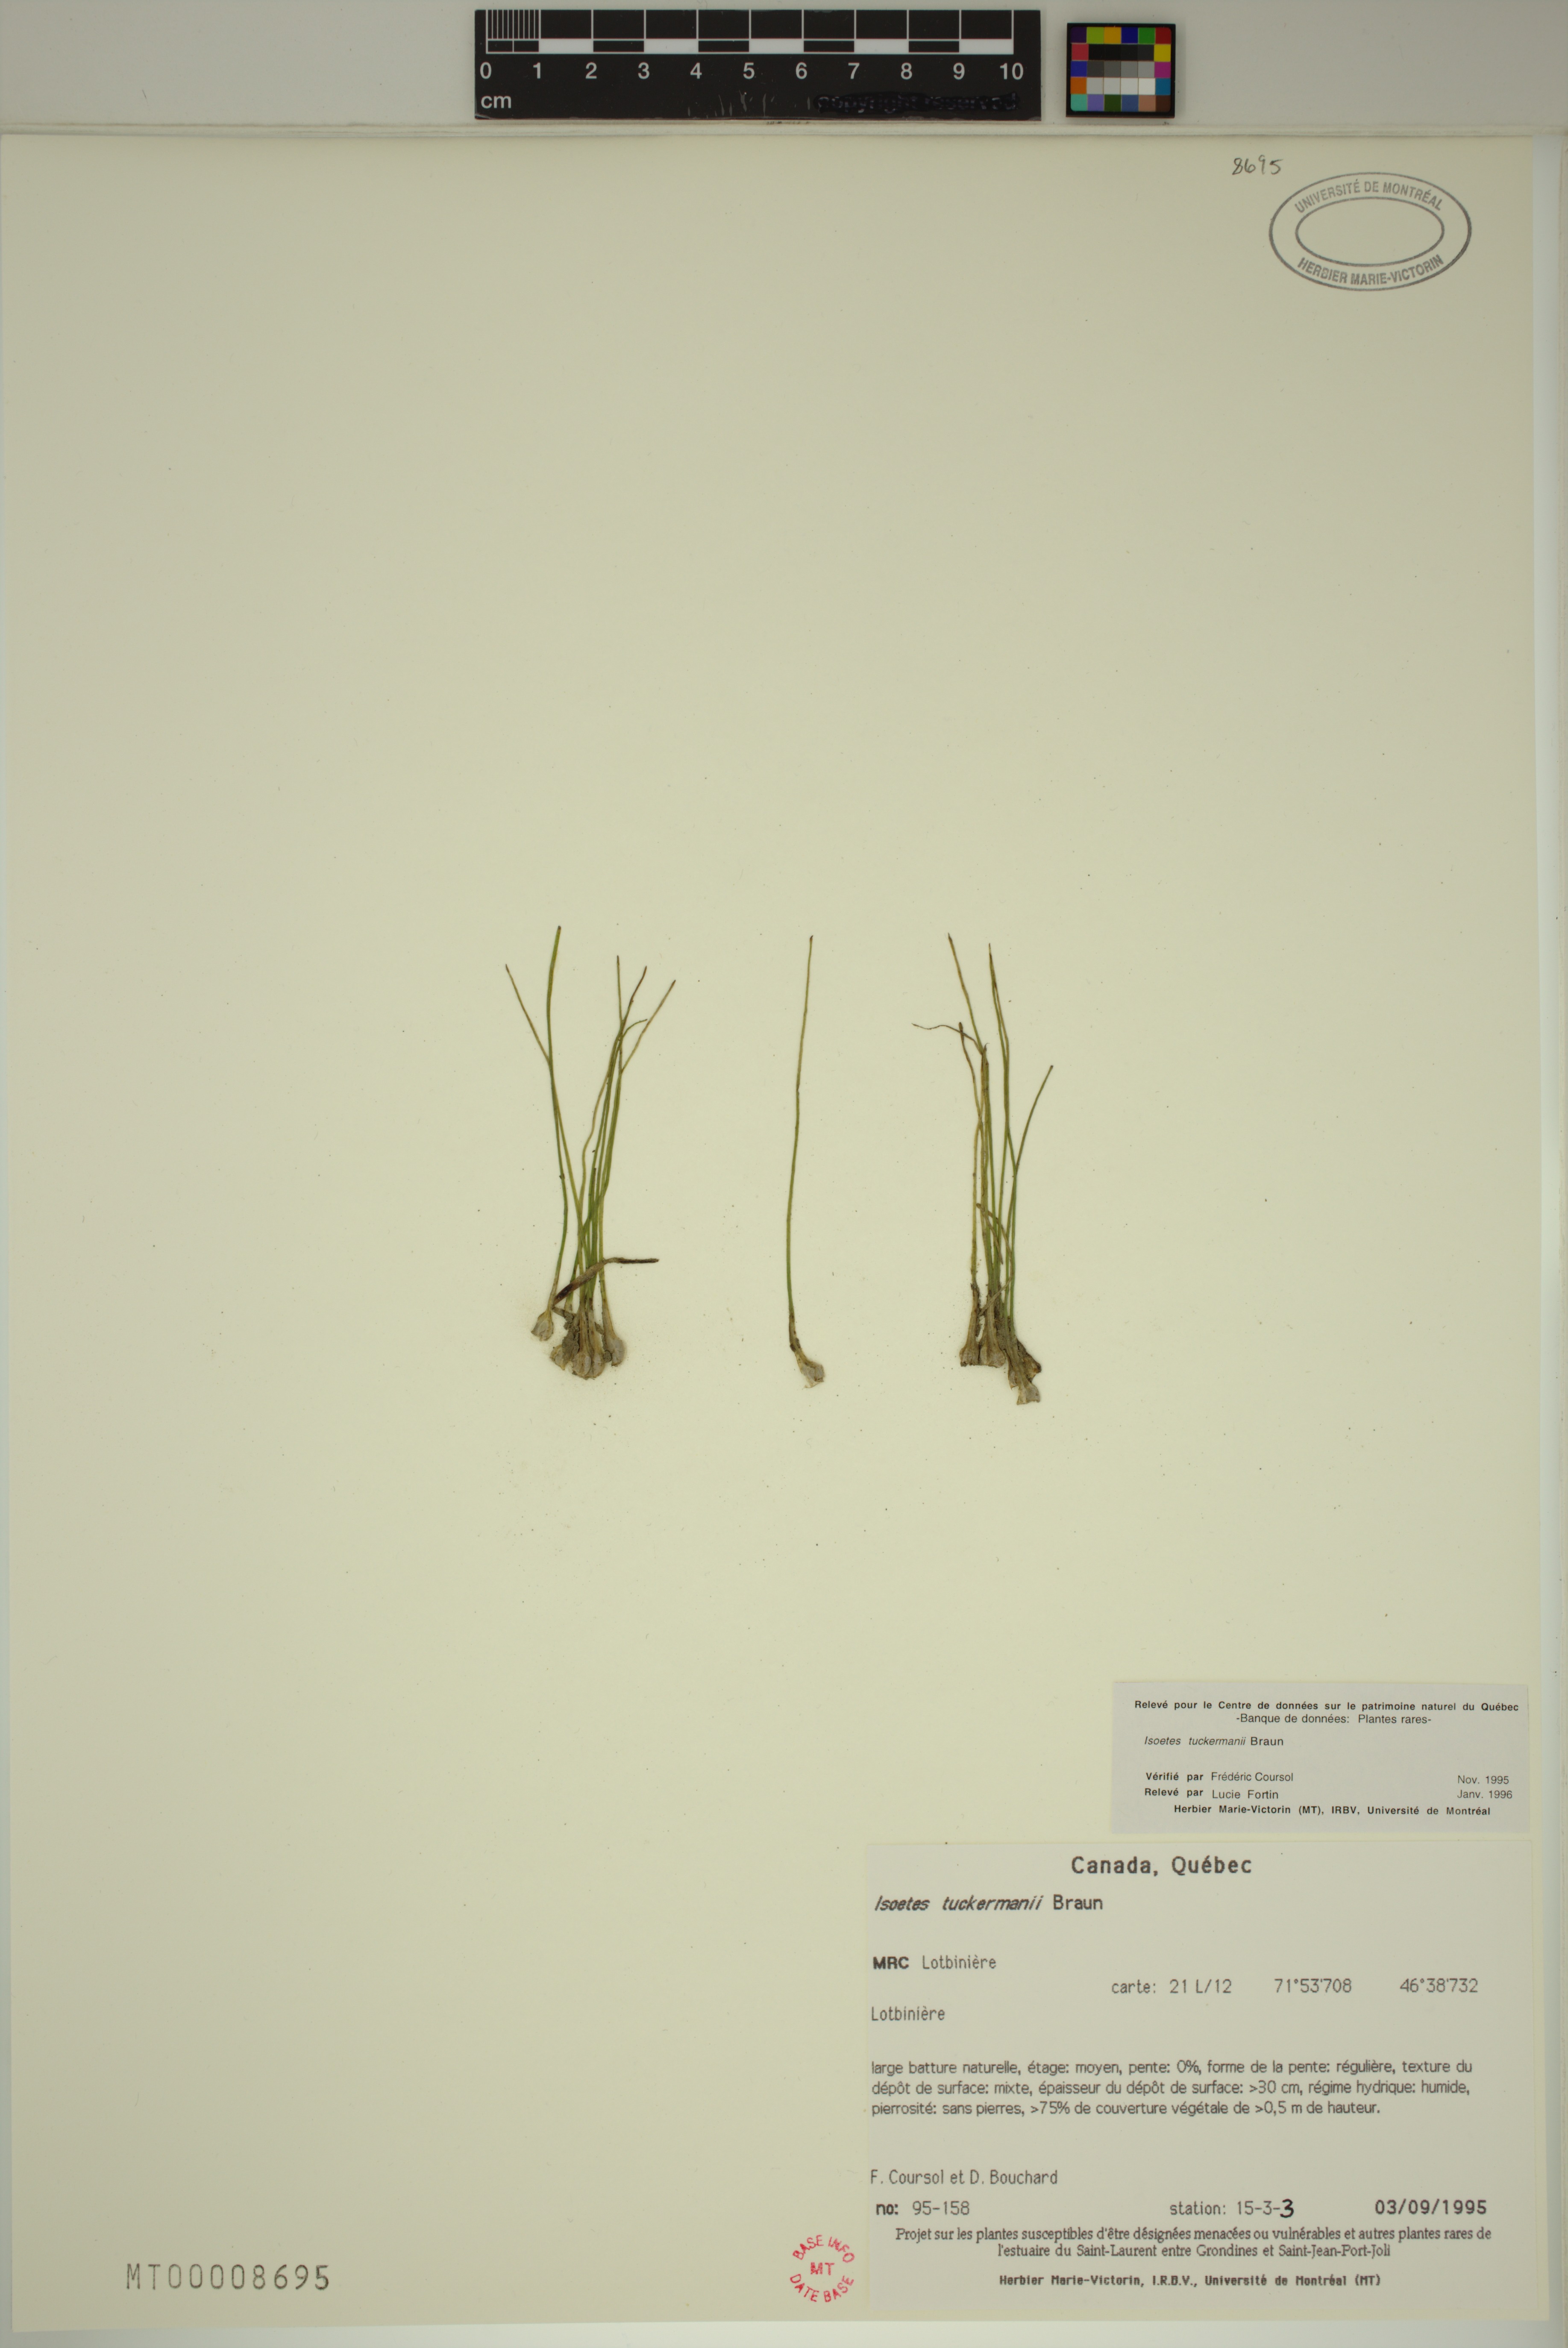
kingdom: Plantae
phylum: Tracheophyta
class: Lycopodiopsida
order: Isoetales
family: Isoetaceae
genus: Isoetes
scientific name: Isoetes laurentiana
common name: St. lawrence quillwort
